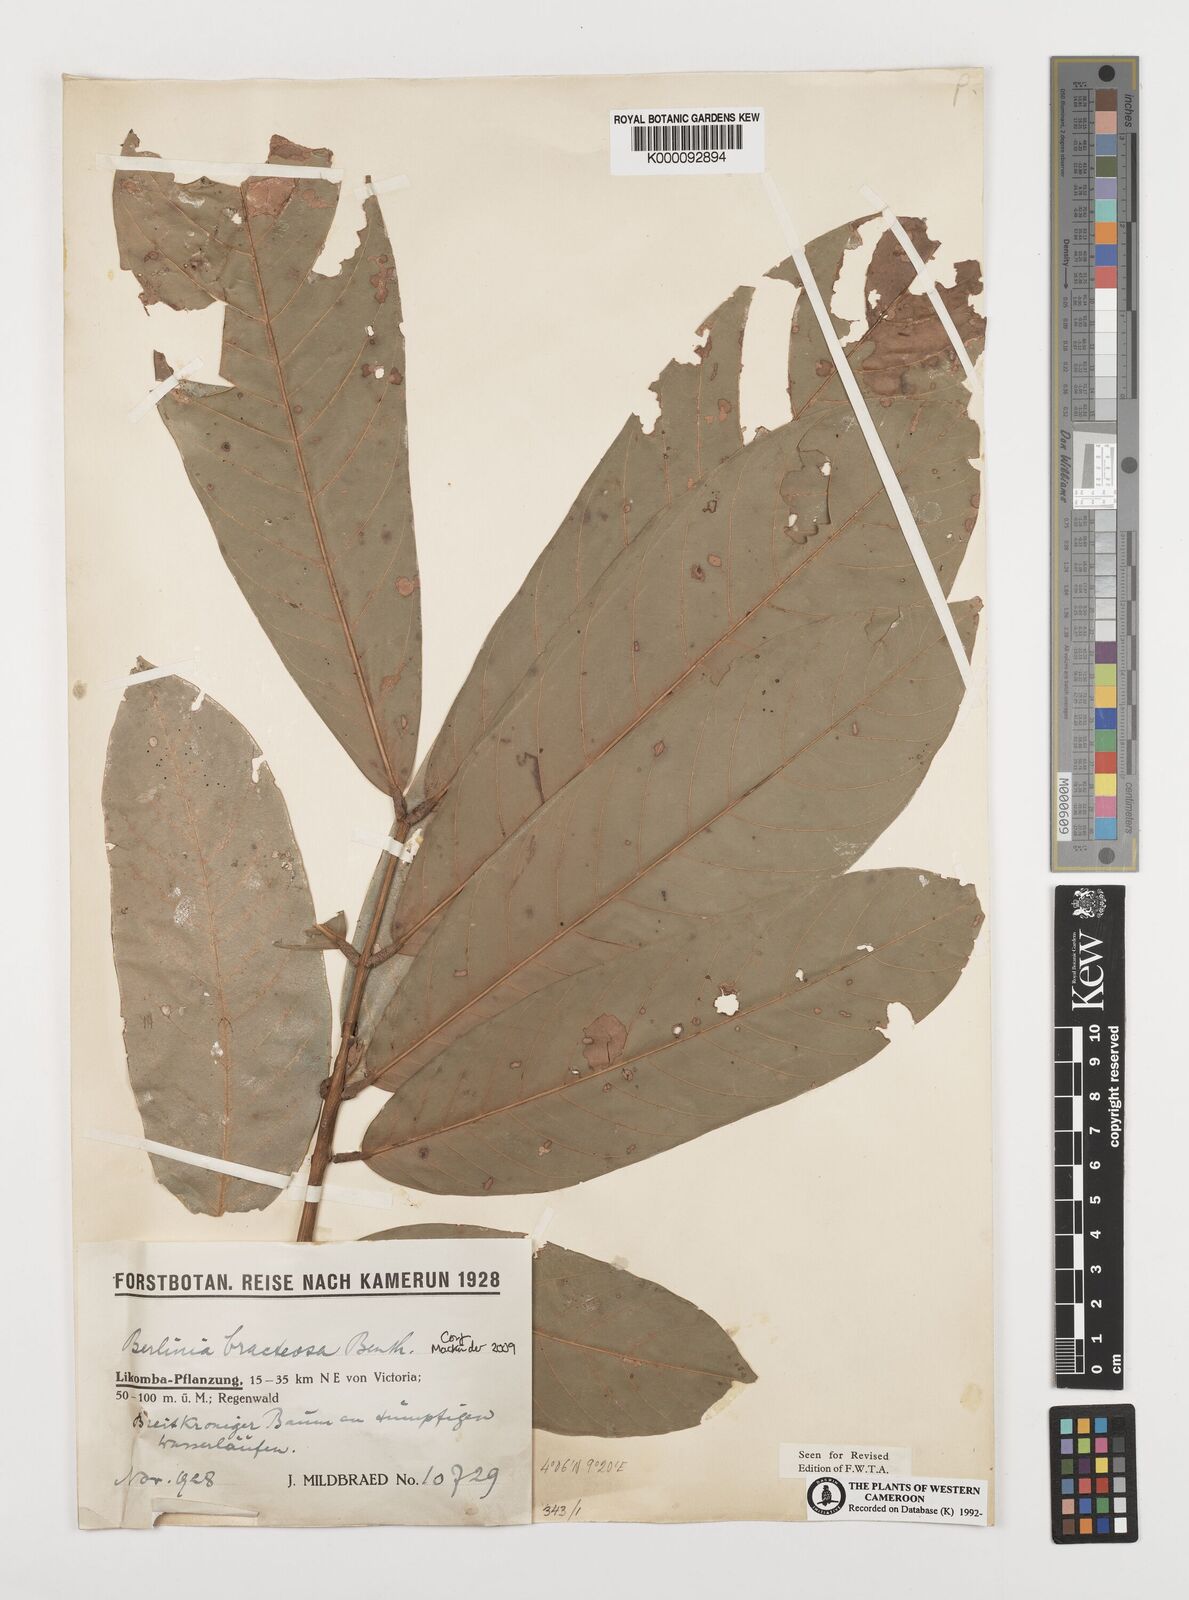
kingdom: Plantae
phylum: Tracheophyta
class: Magnoliopsida
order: Fabales
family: Fabaceae
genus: Berlinia
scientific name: Berlinia bracteosa
